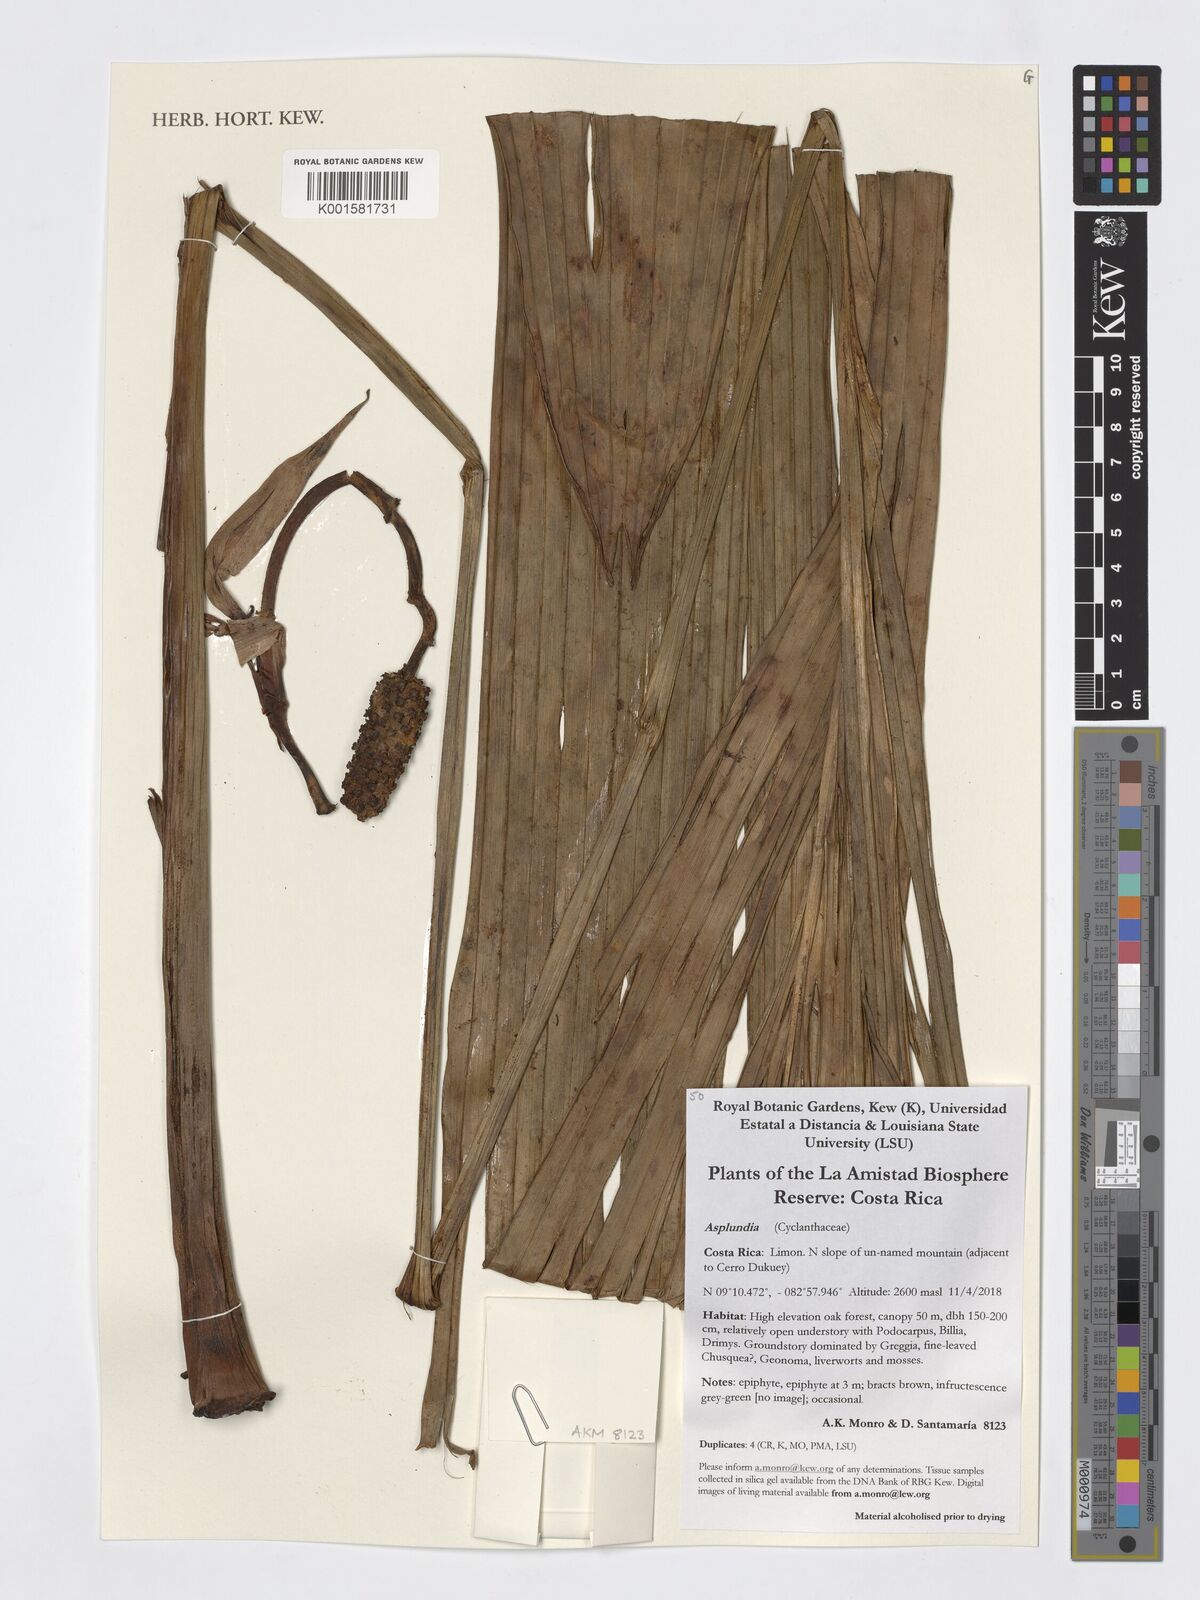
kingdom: Plantae
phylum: Tracheophyta
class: Liliopsida
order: Pandanales
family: Cyclanthaceae
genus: Asplundia
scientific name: Asplundia
